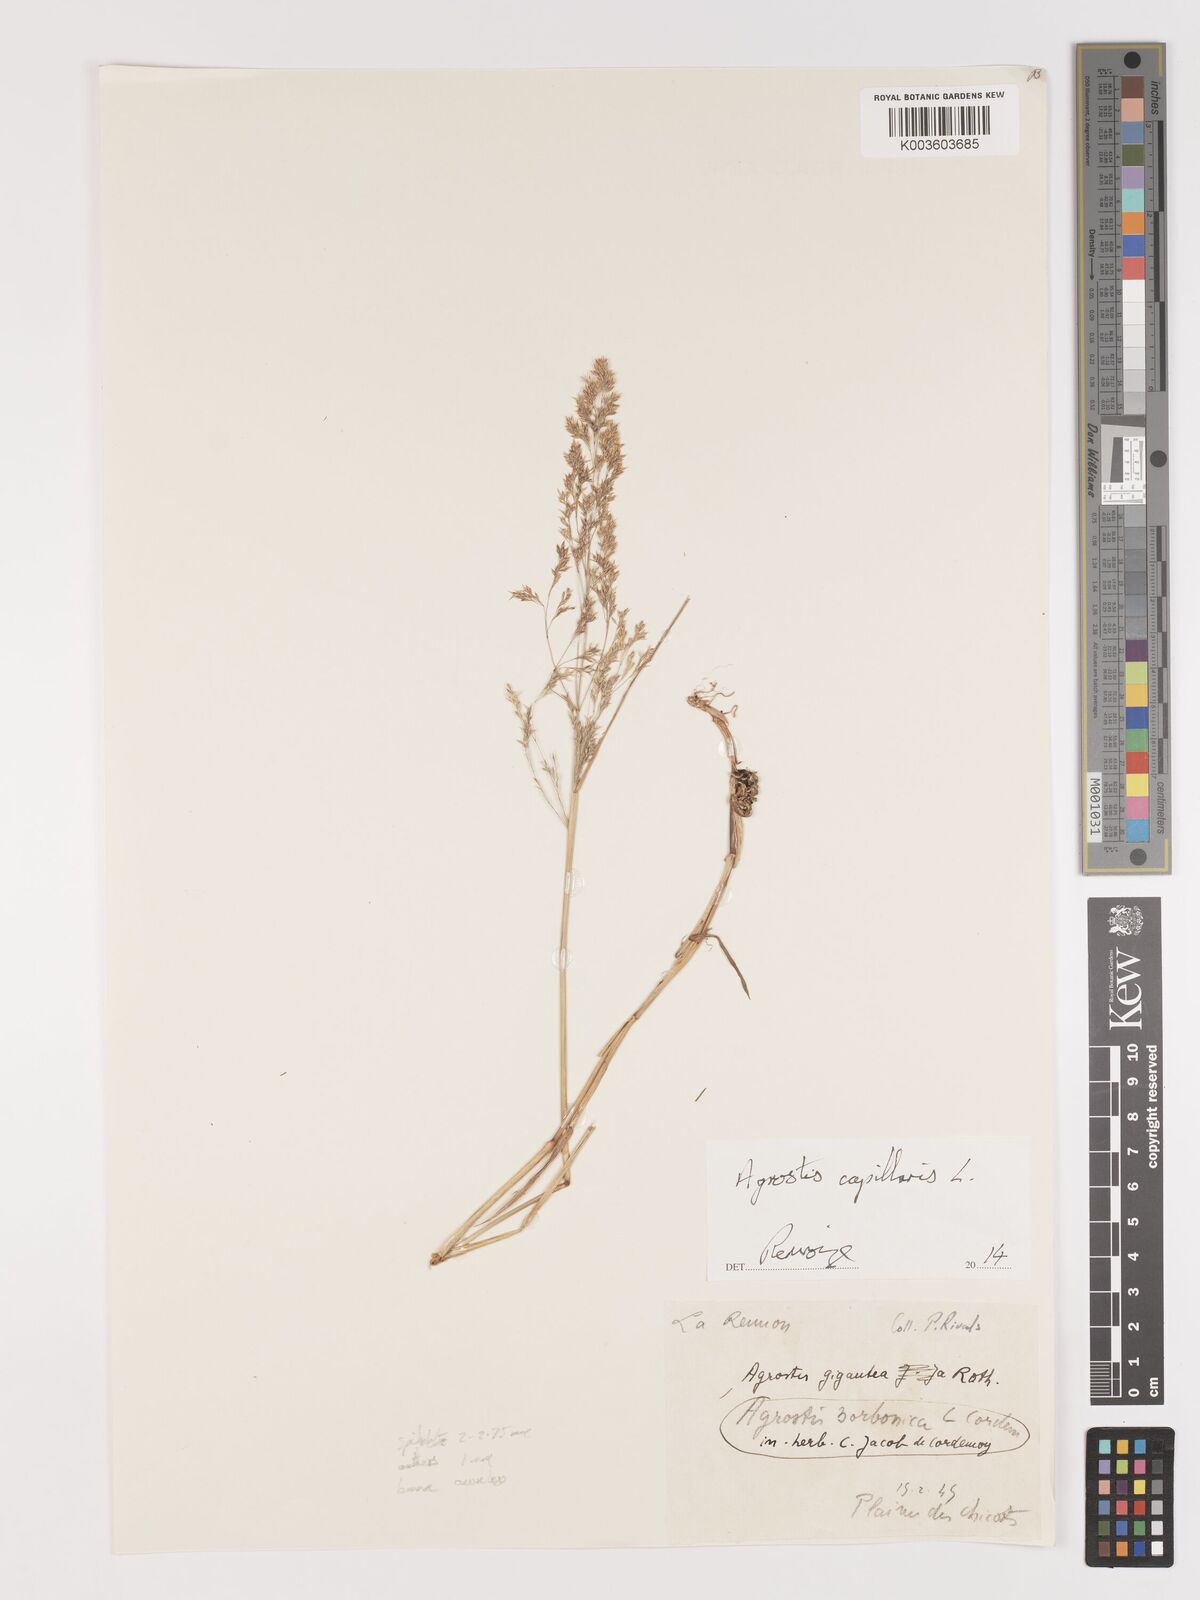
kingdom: Plantae
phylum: Tracheophyta
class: Liliopsida
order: Poales
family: Poaceae
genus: Agrostis
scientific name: Agrostis capillaris
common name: Colonial bentgrass
